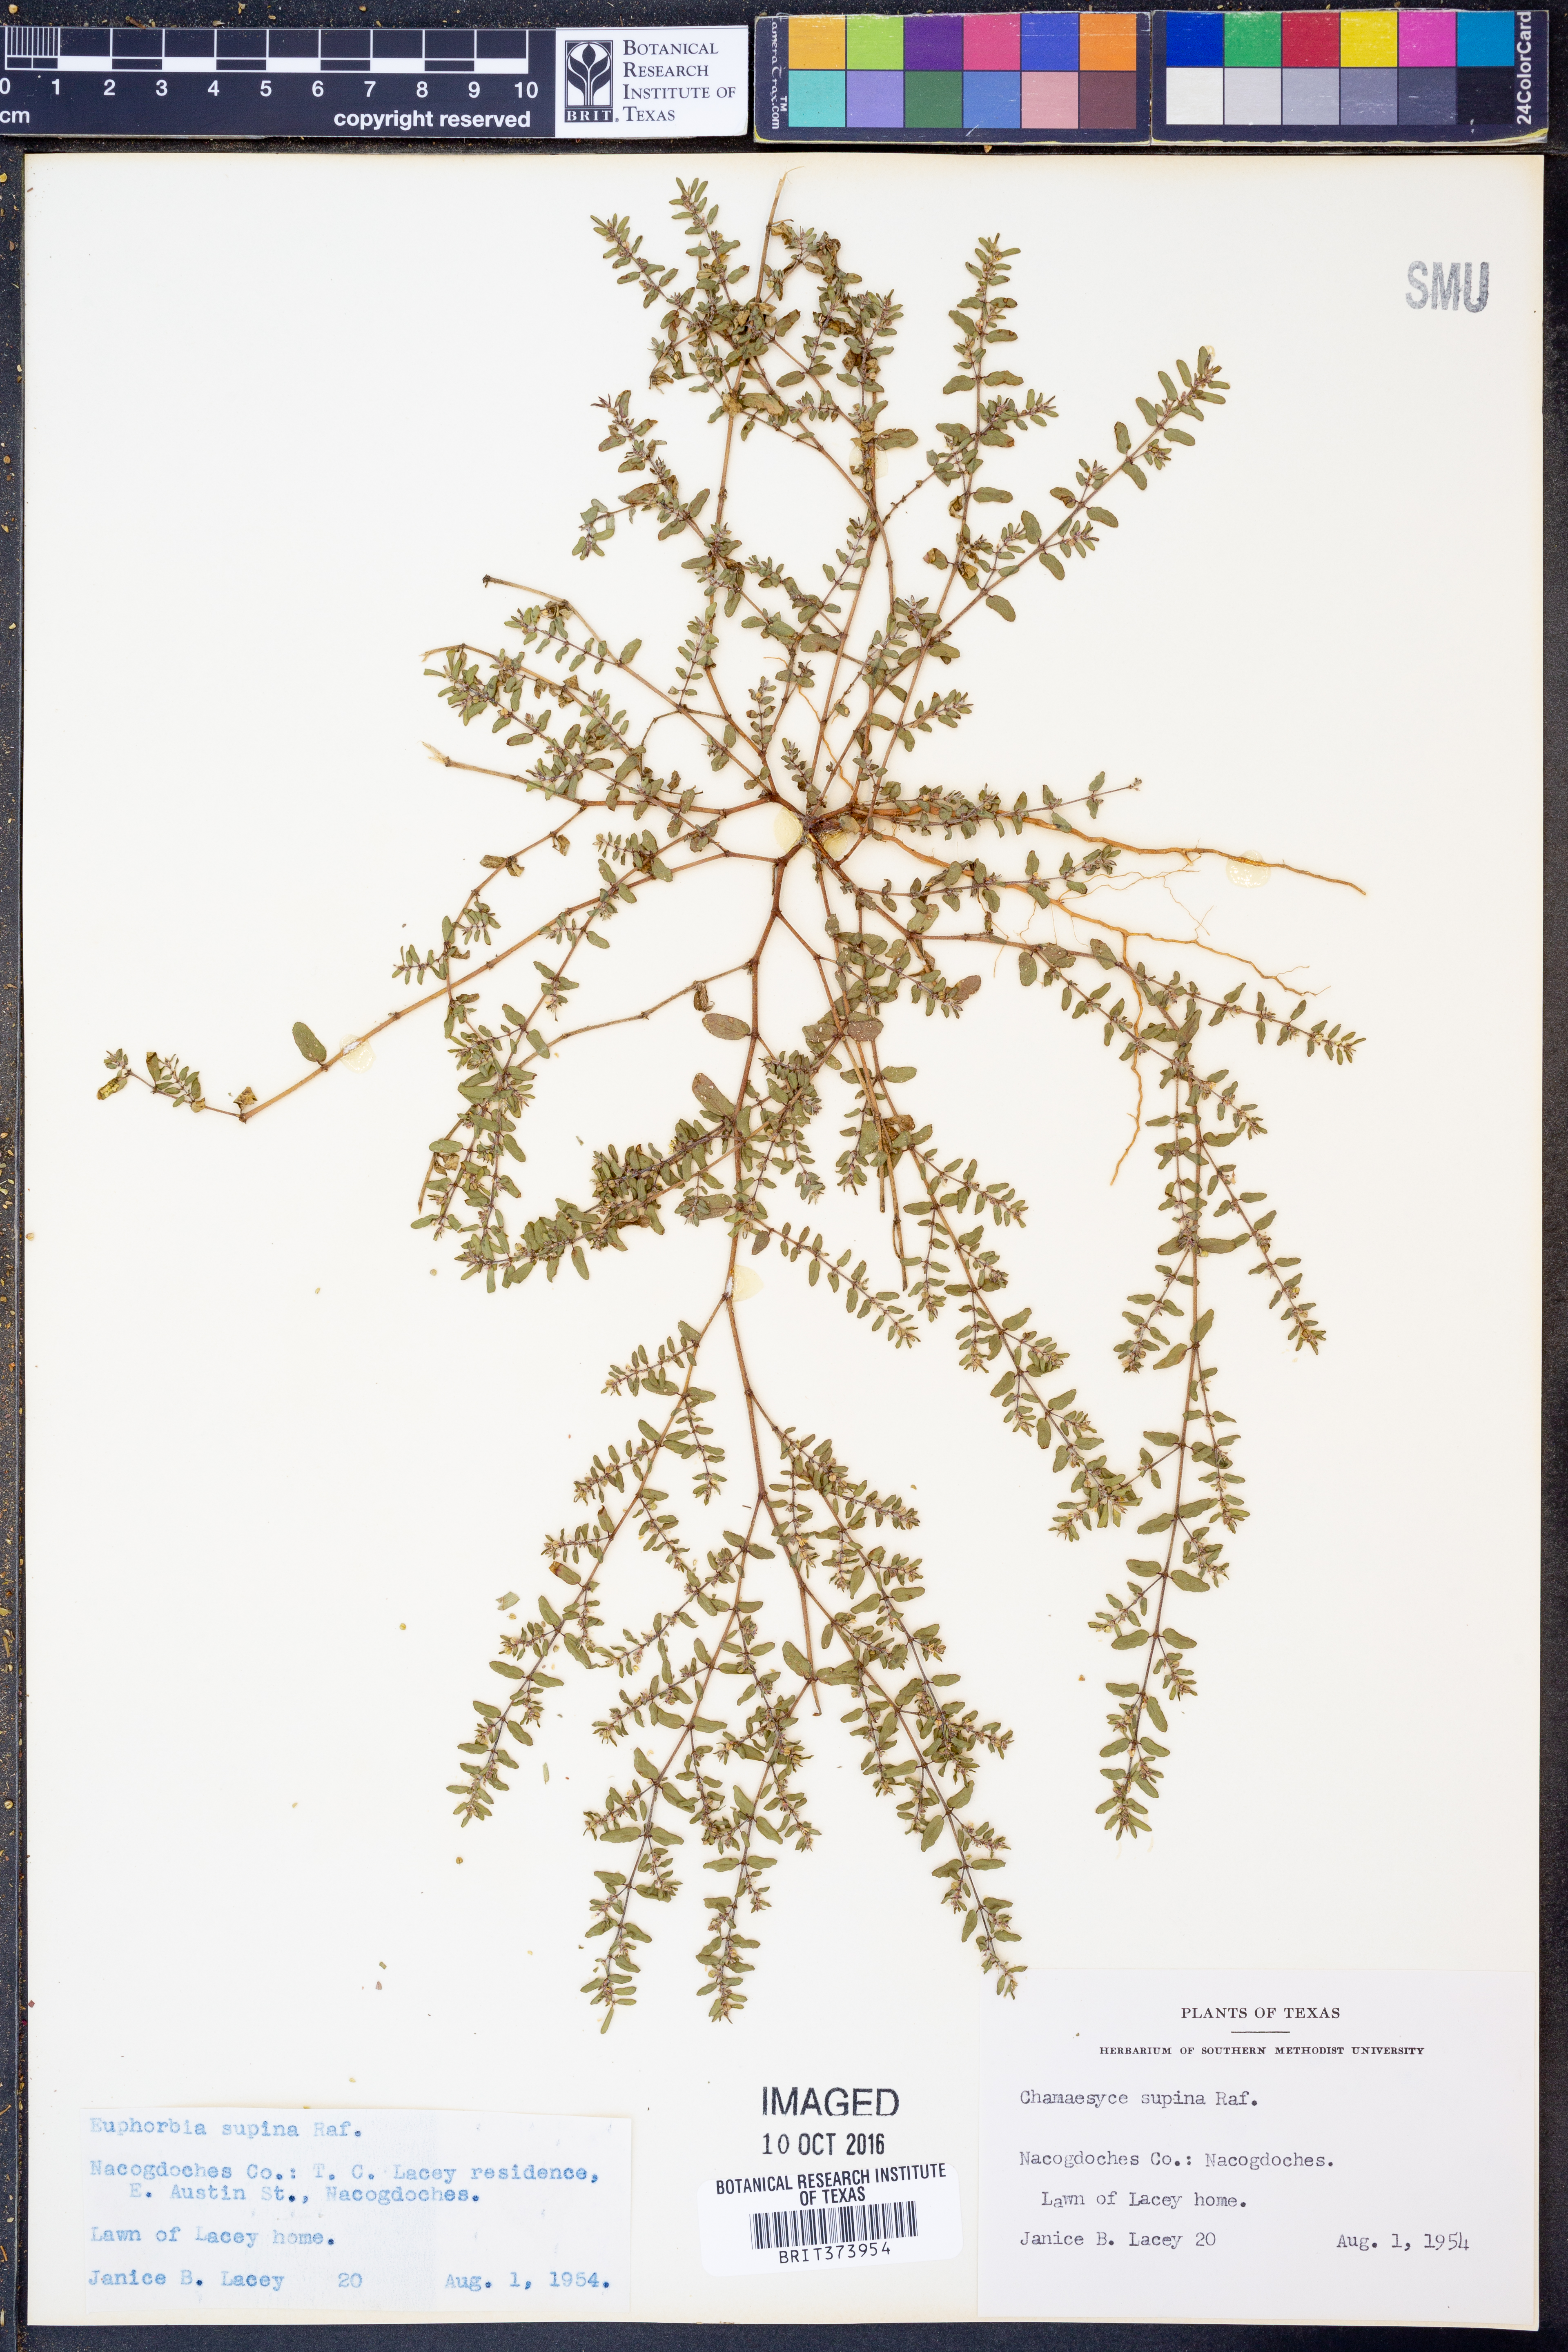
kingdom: Plantae
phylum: Tracheophyta
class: Magnoliopsida
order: Malpighiales
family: Euphorbiaceae
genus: Euphorbia
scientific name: Euphorbia maculata
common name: Spotted spurge
